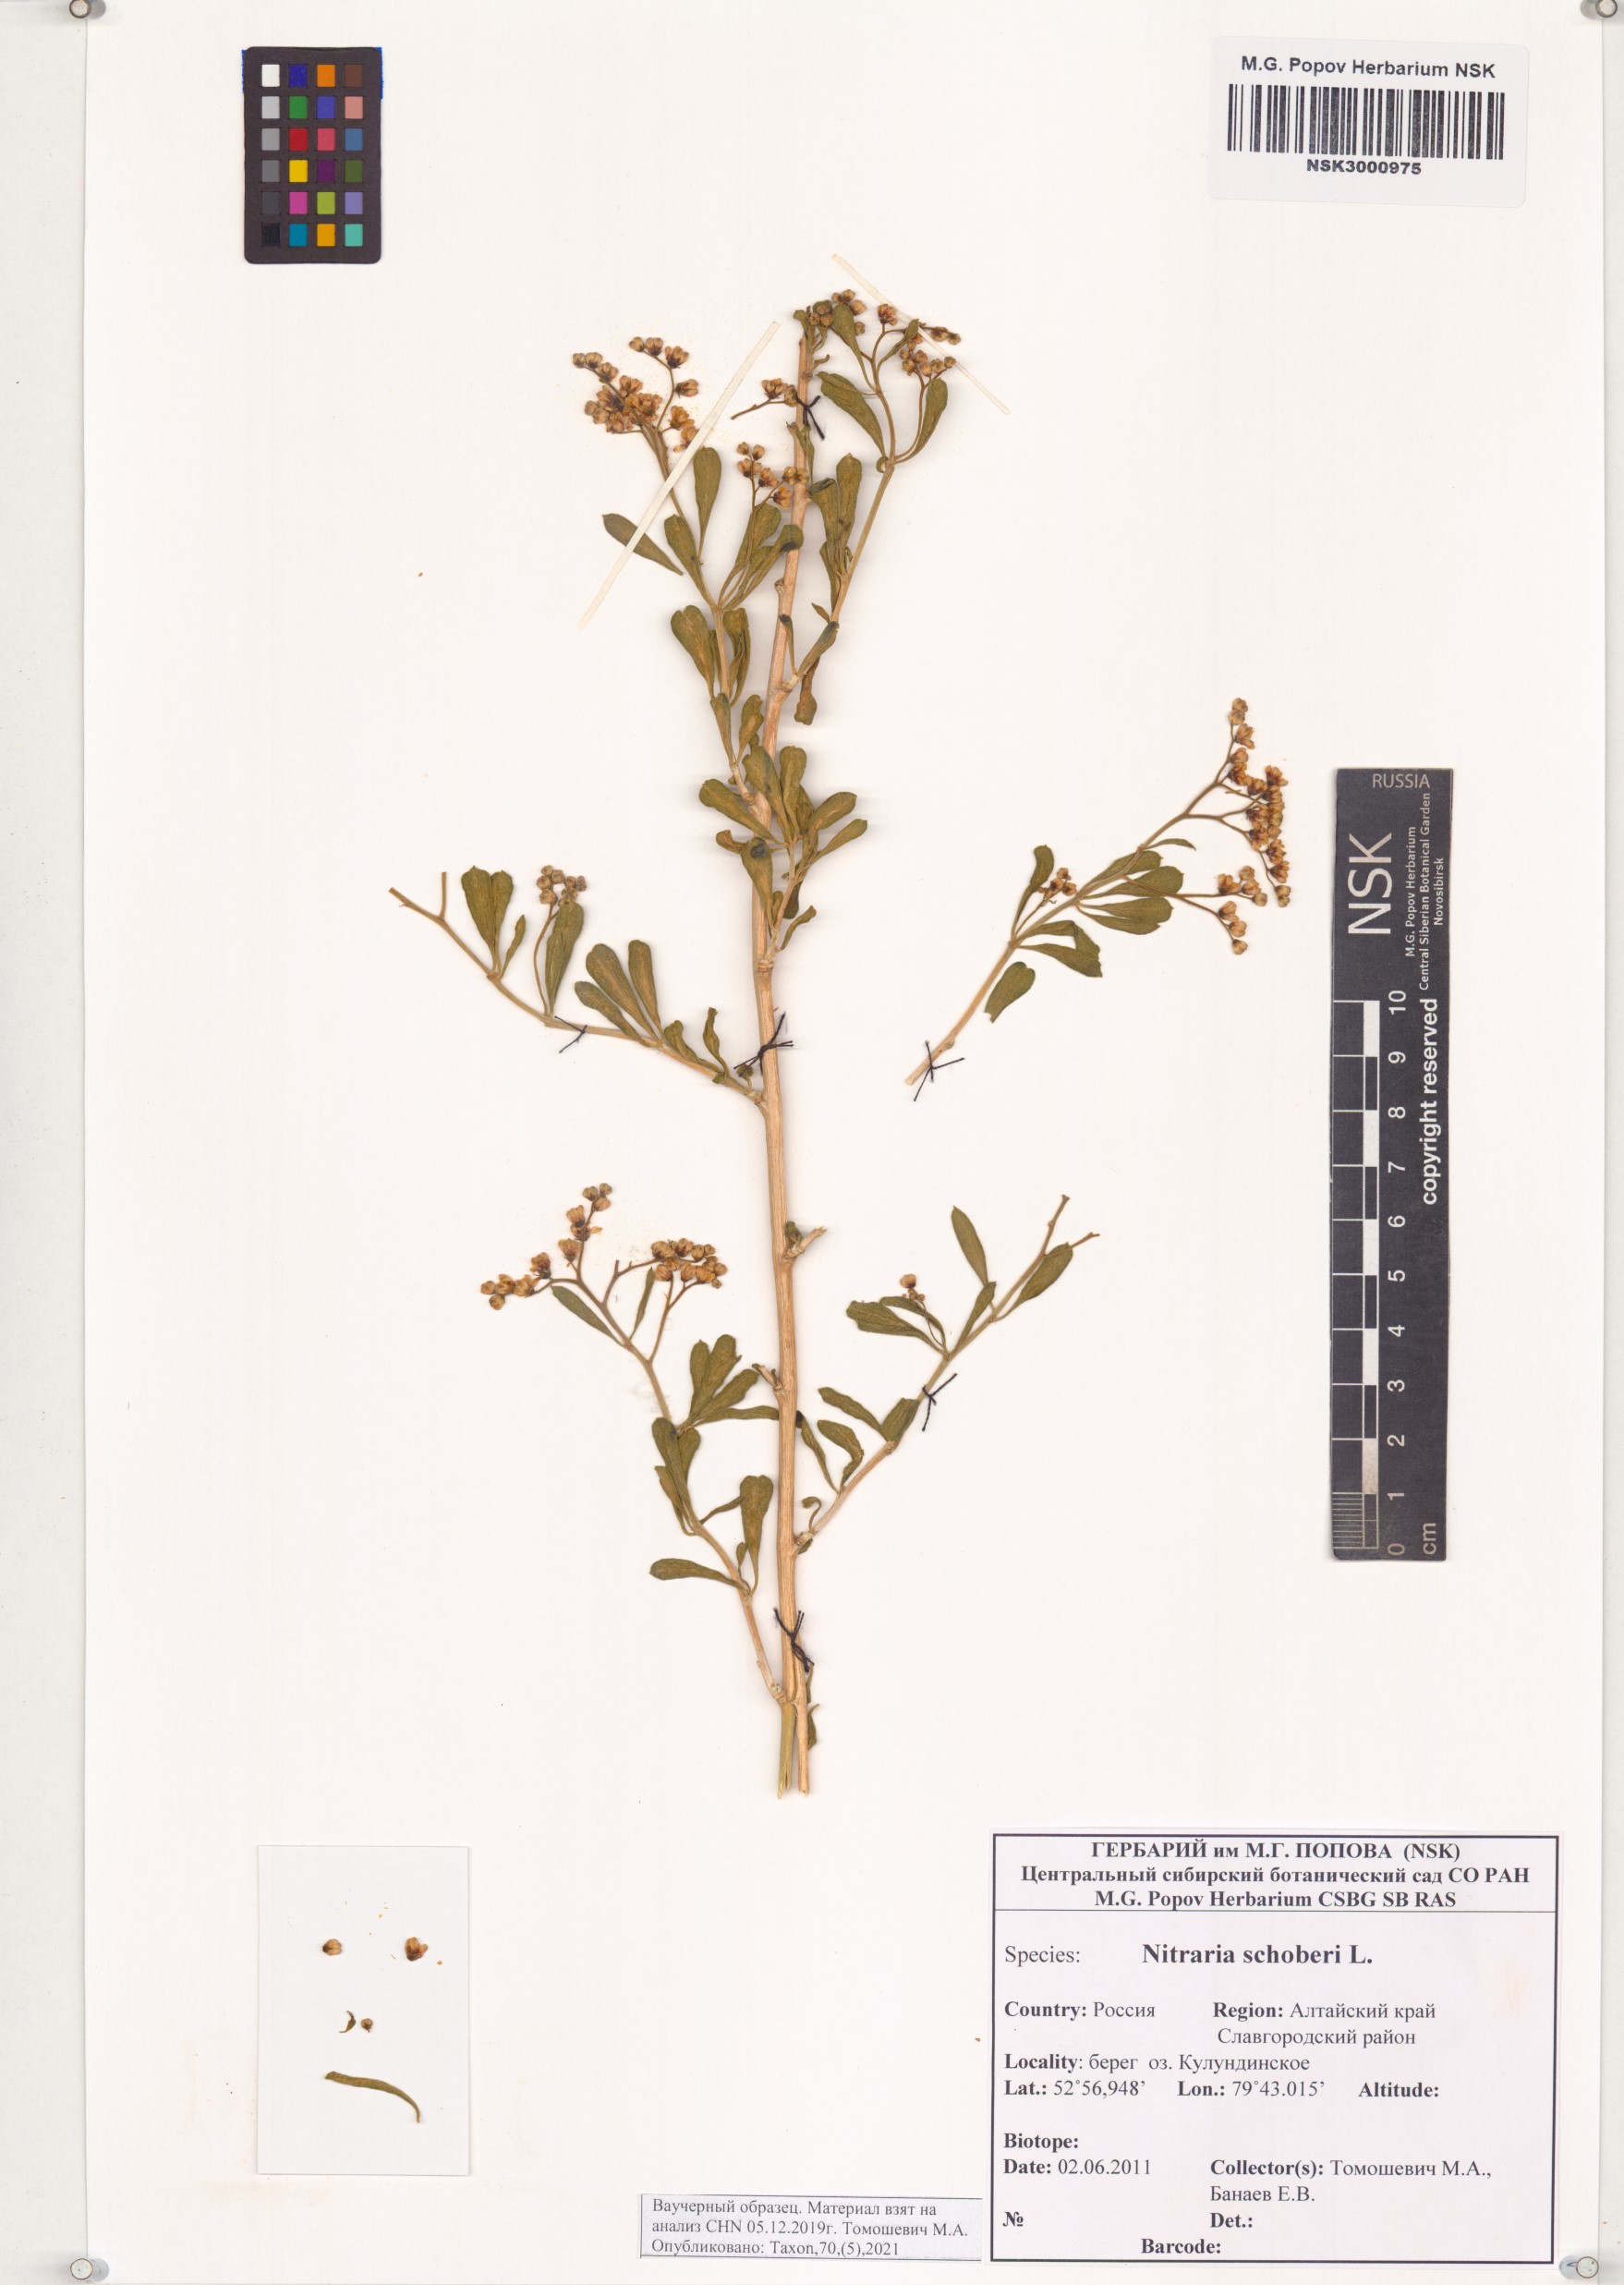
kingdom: Plantae
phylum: Tracheophyta
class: Magnoliopsida
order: Sapindales
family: Nitrariaceae
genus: Nitraria
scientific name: Nitraria schoberi
